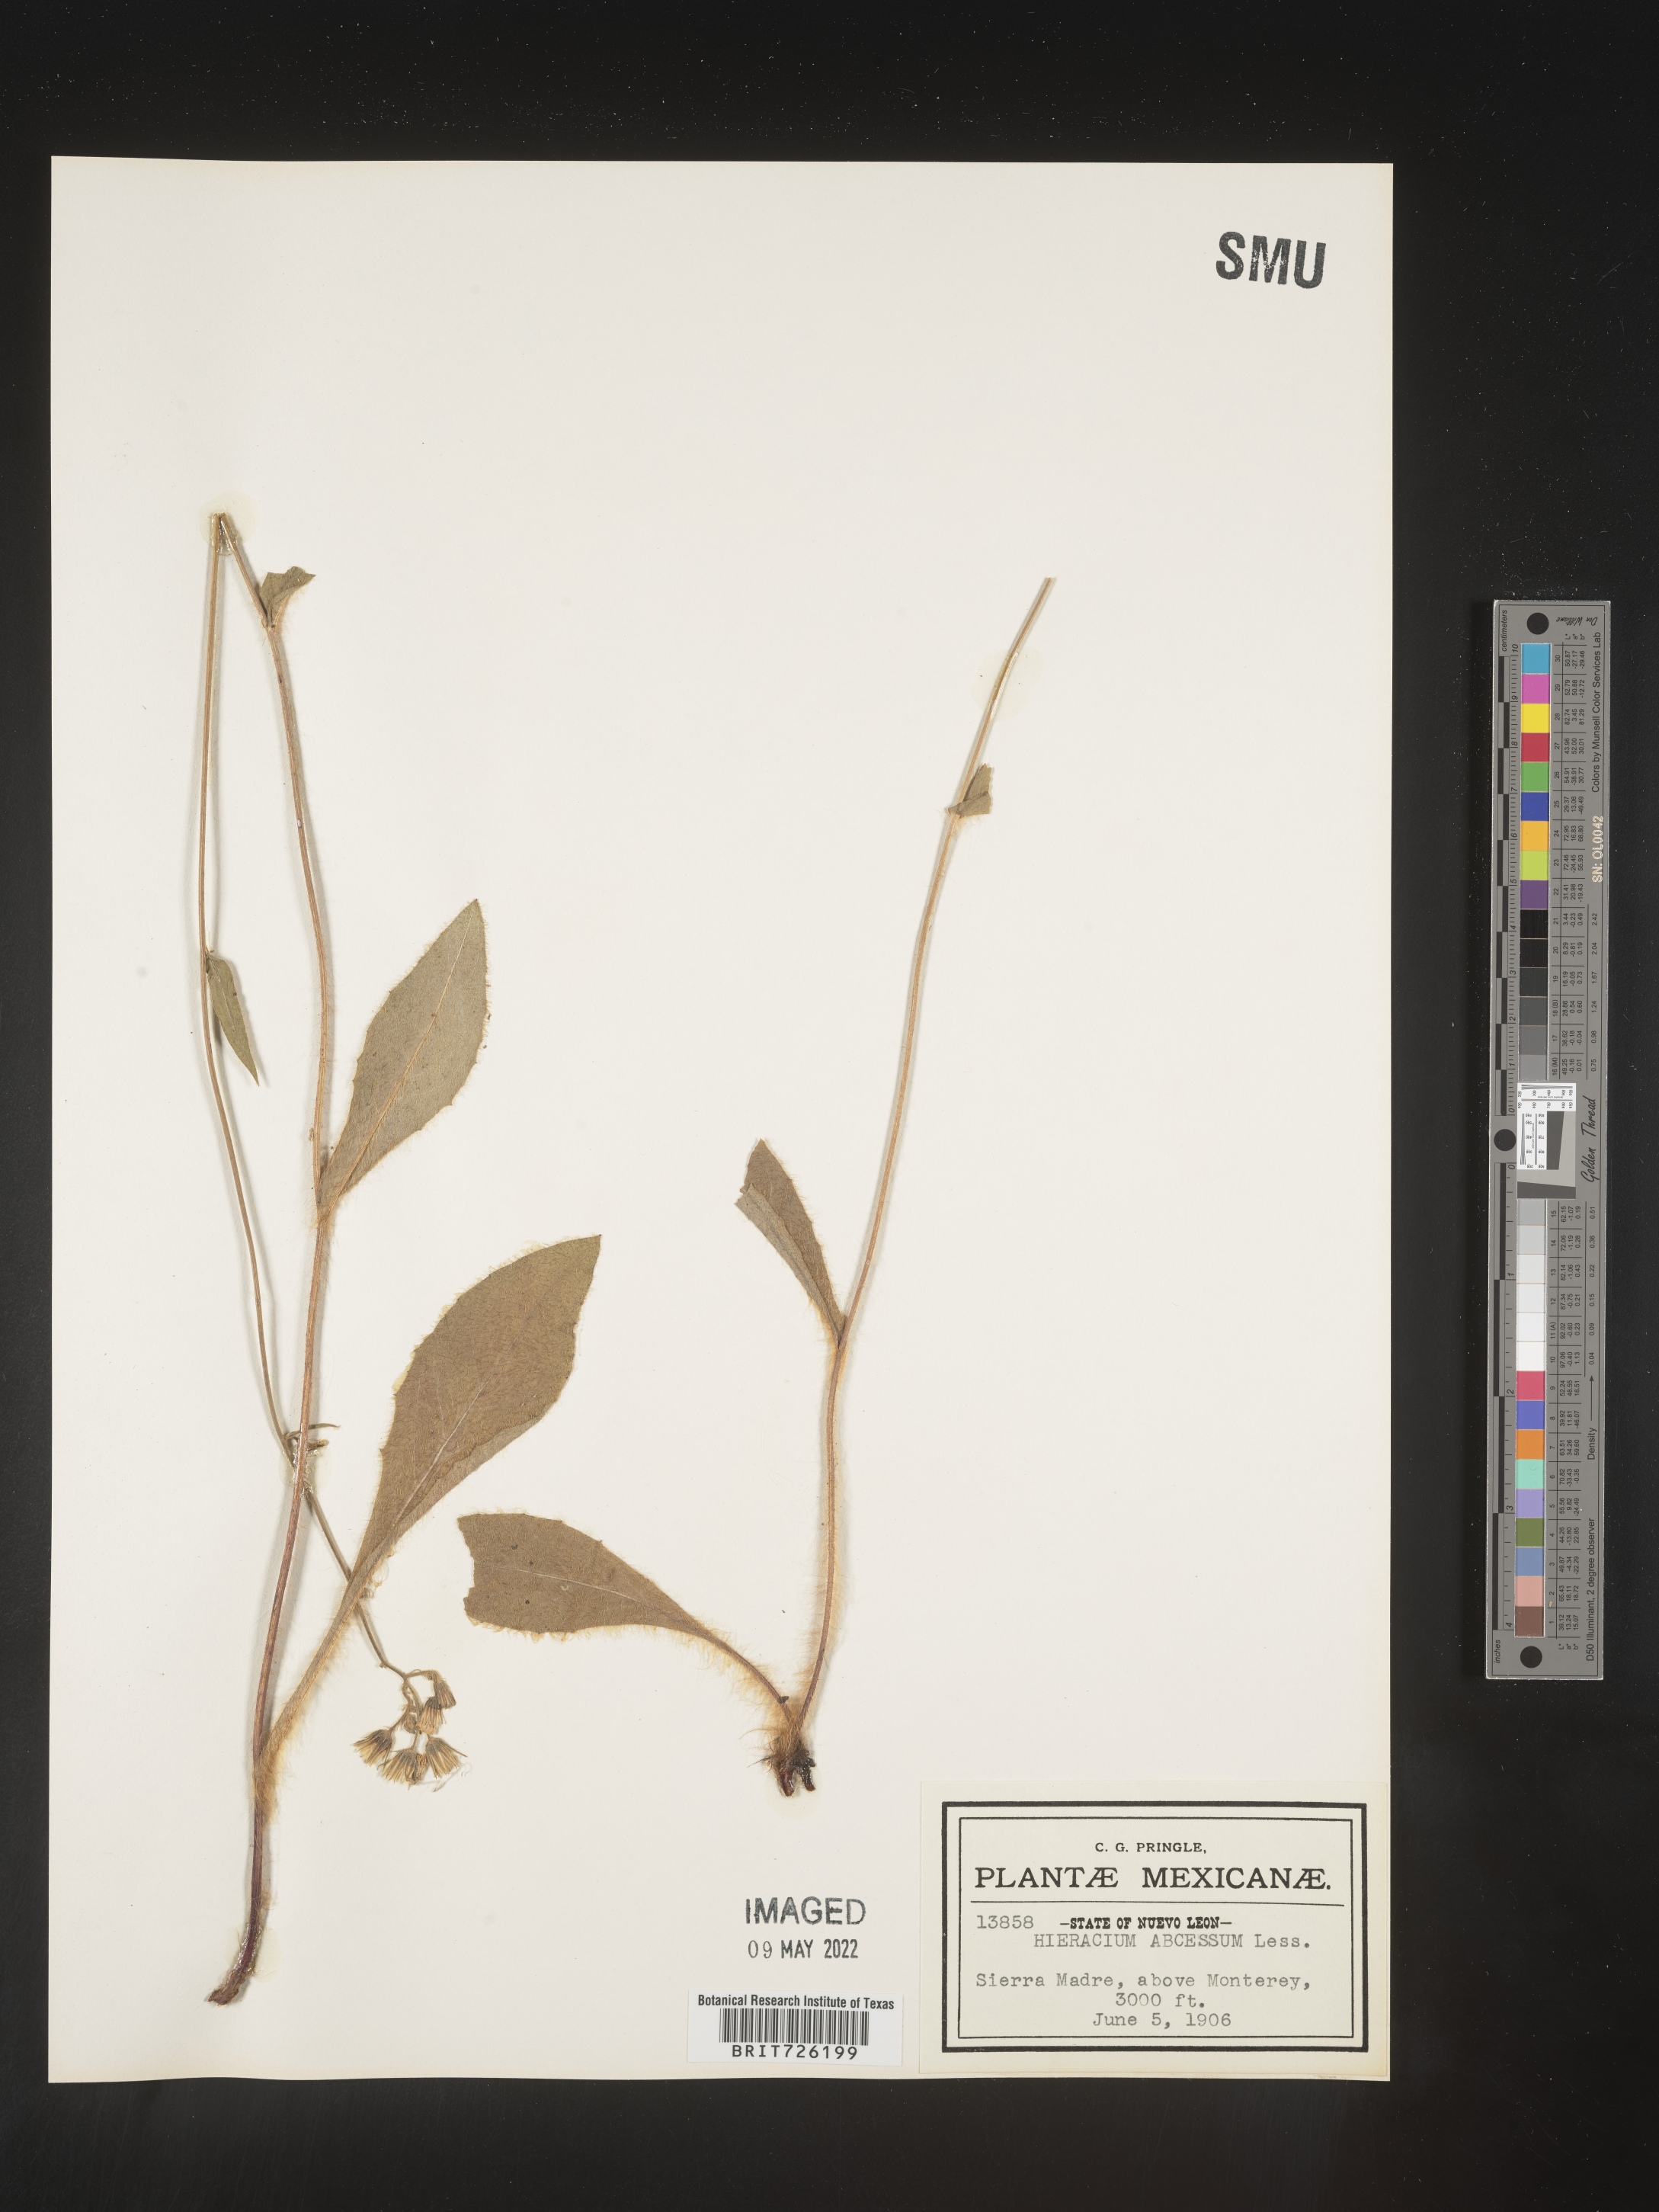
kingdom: Plantae
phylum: Tracheophyta
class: Magnoliopsida
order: Asterales
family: Asteraceae
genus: Hieracium
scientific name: Hieracium
